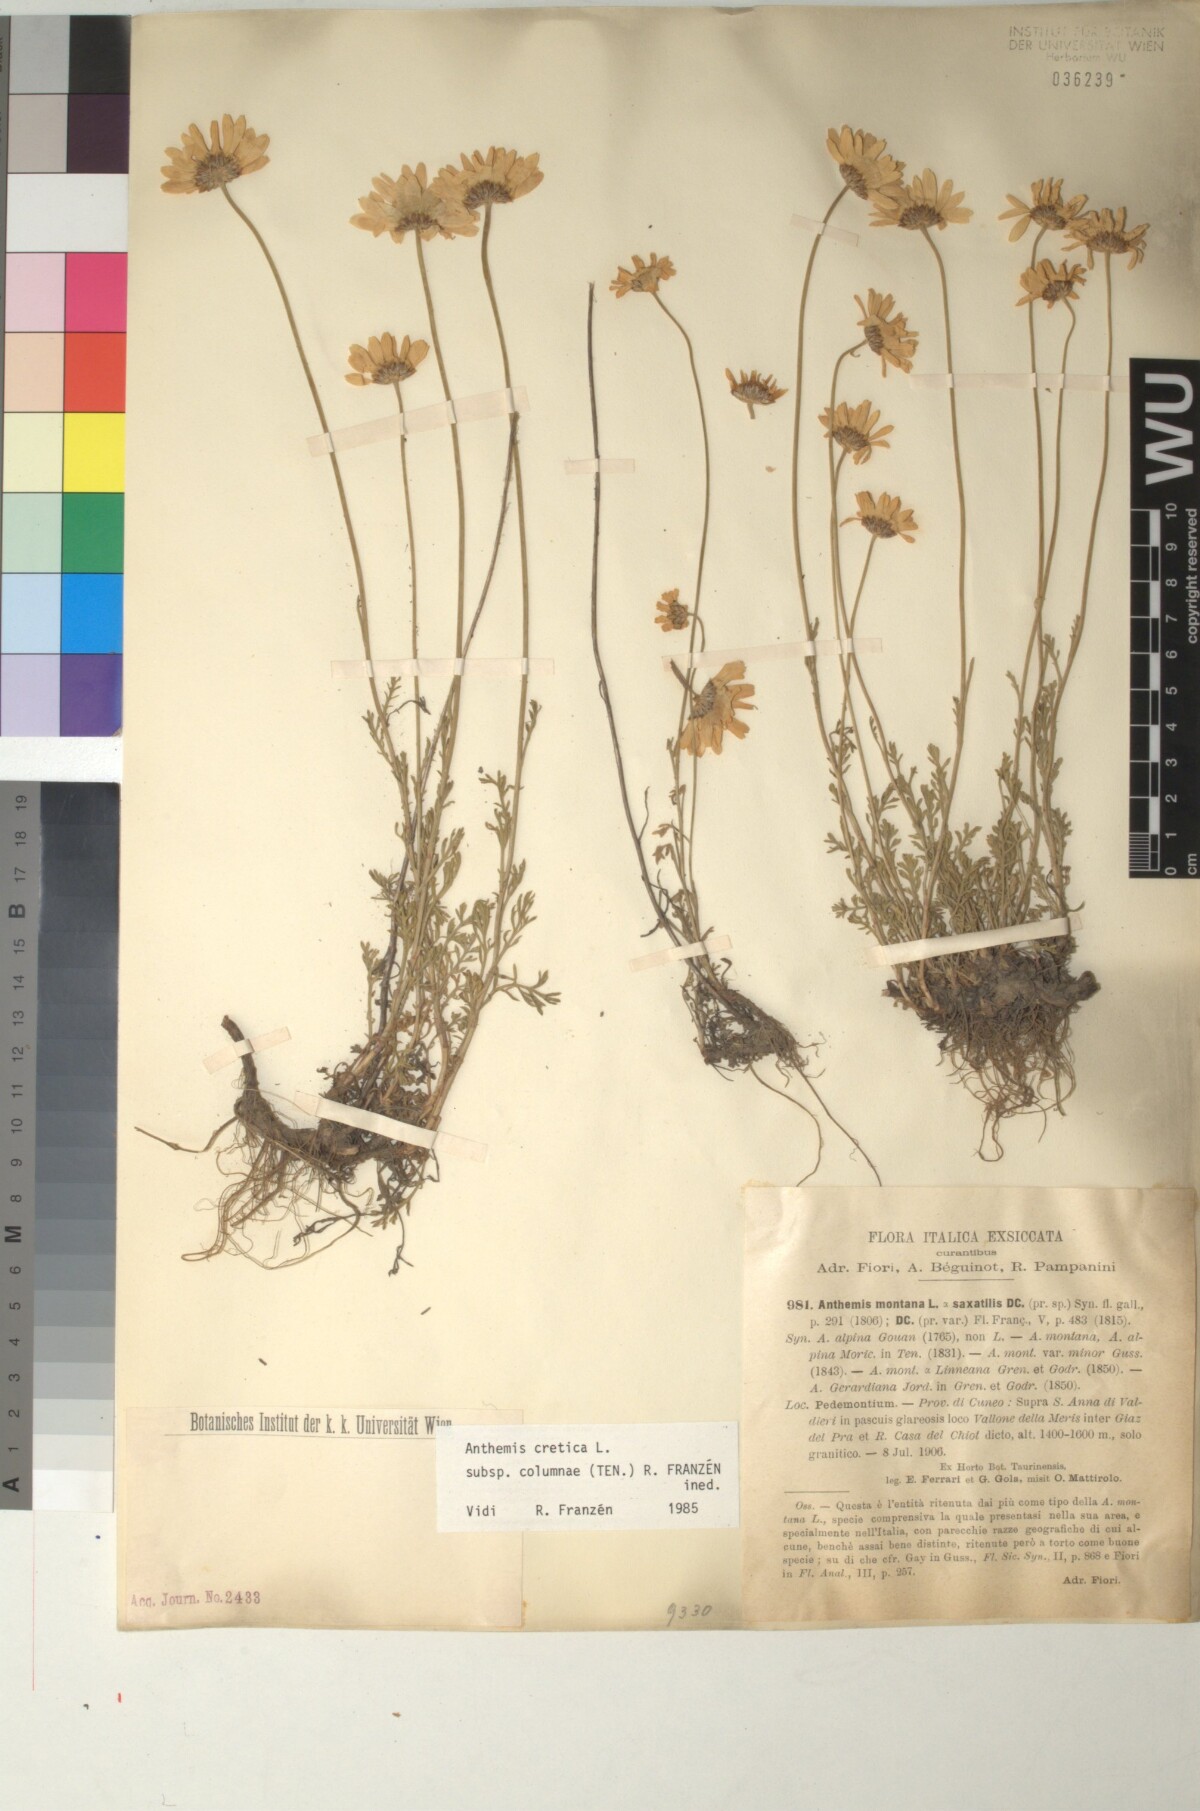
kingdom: Plantae
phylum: Tracheophyta
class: Magnoliopsida
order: Asterales
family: Asteraceae
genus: Anthemis
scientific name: Anthemis cretica
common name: Mountain dog-daisy
